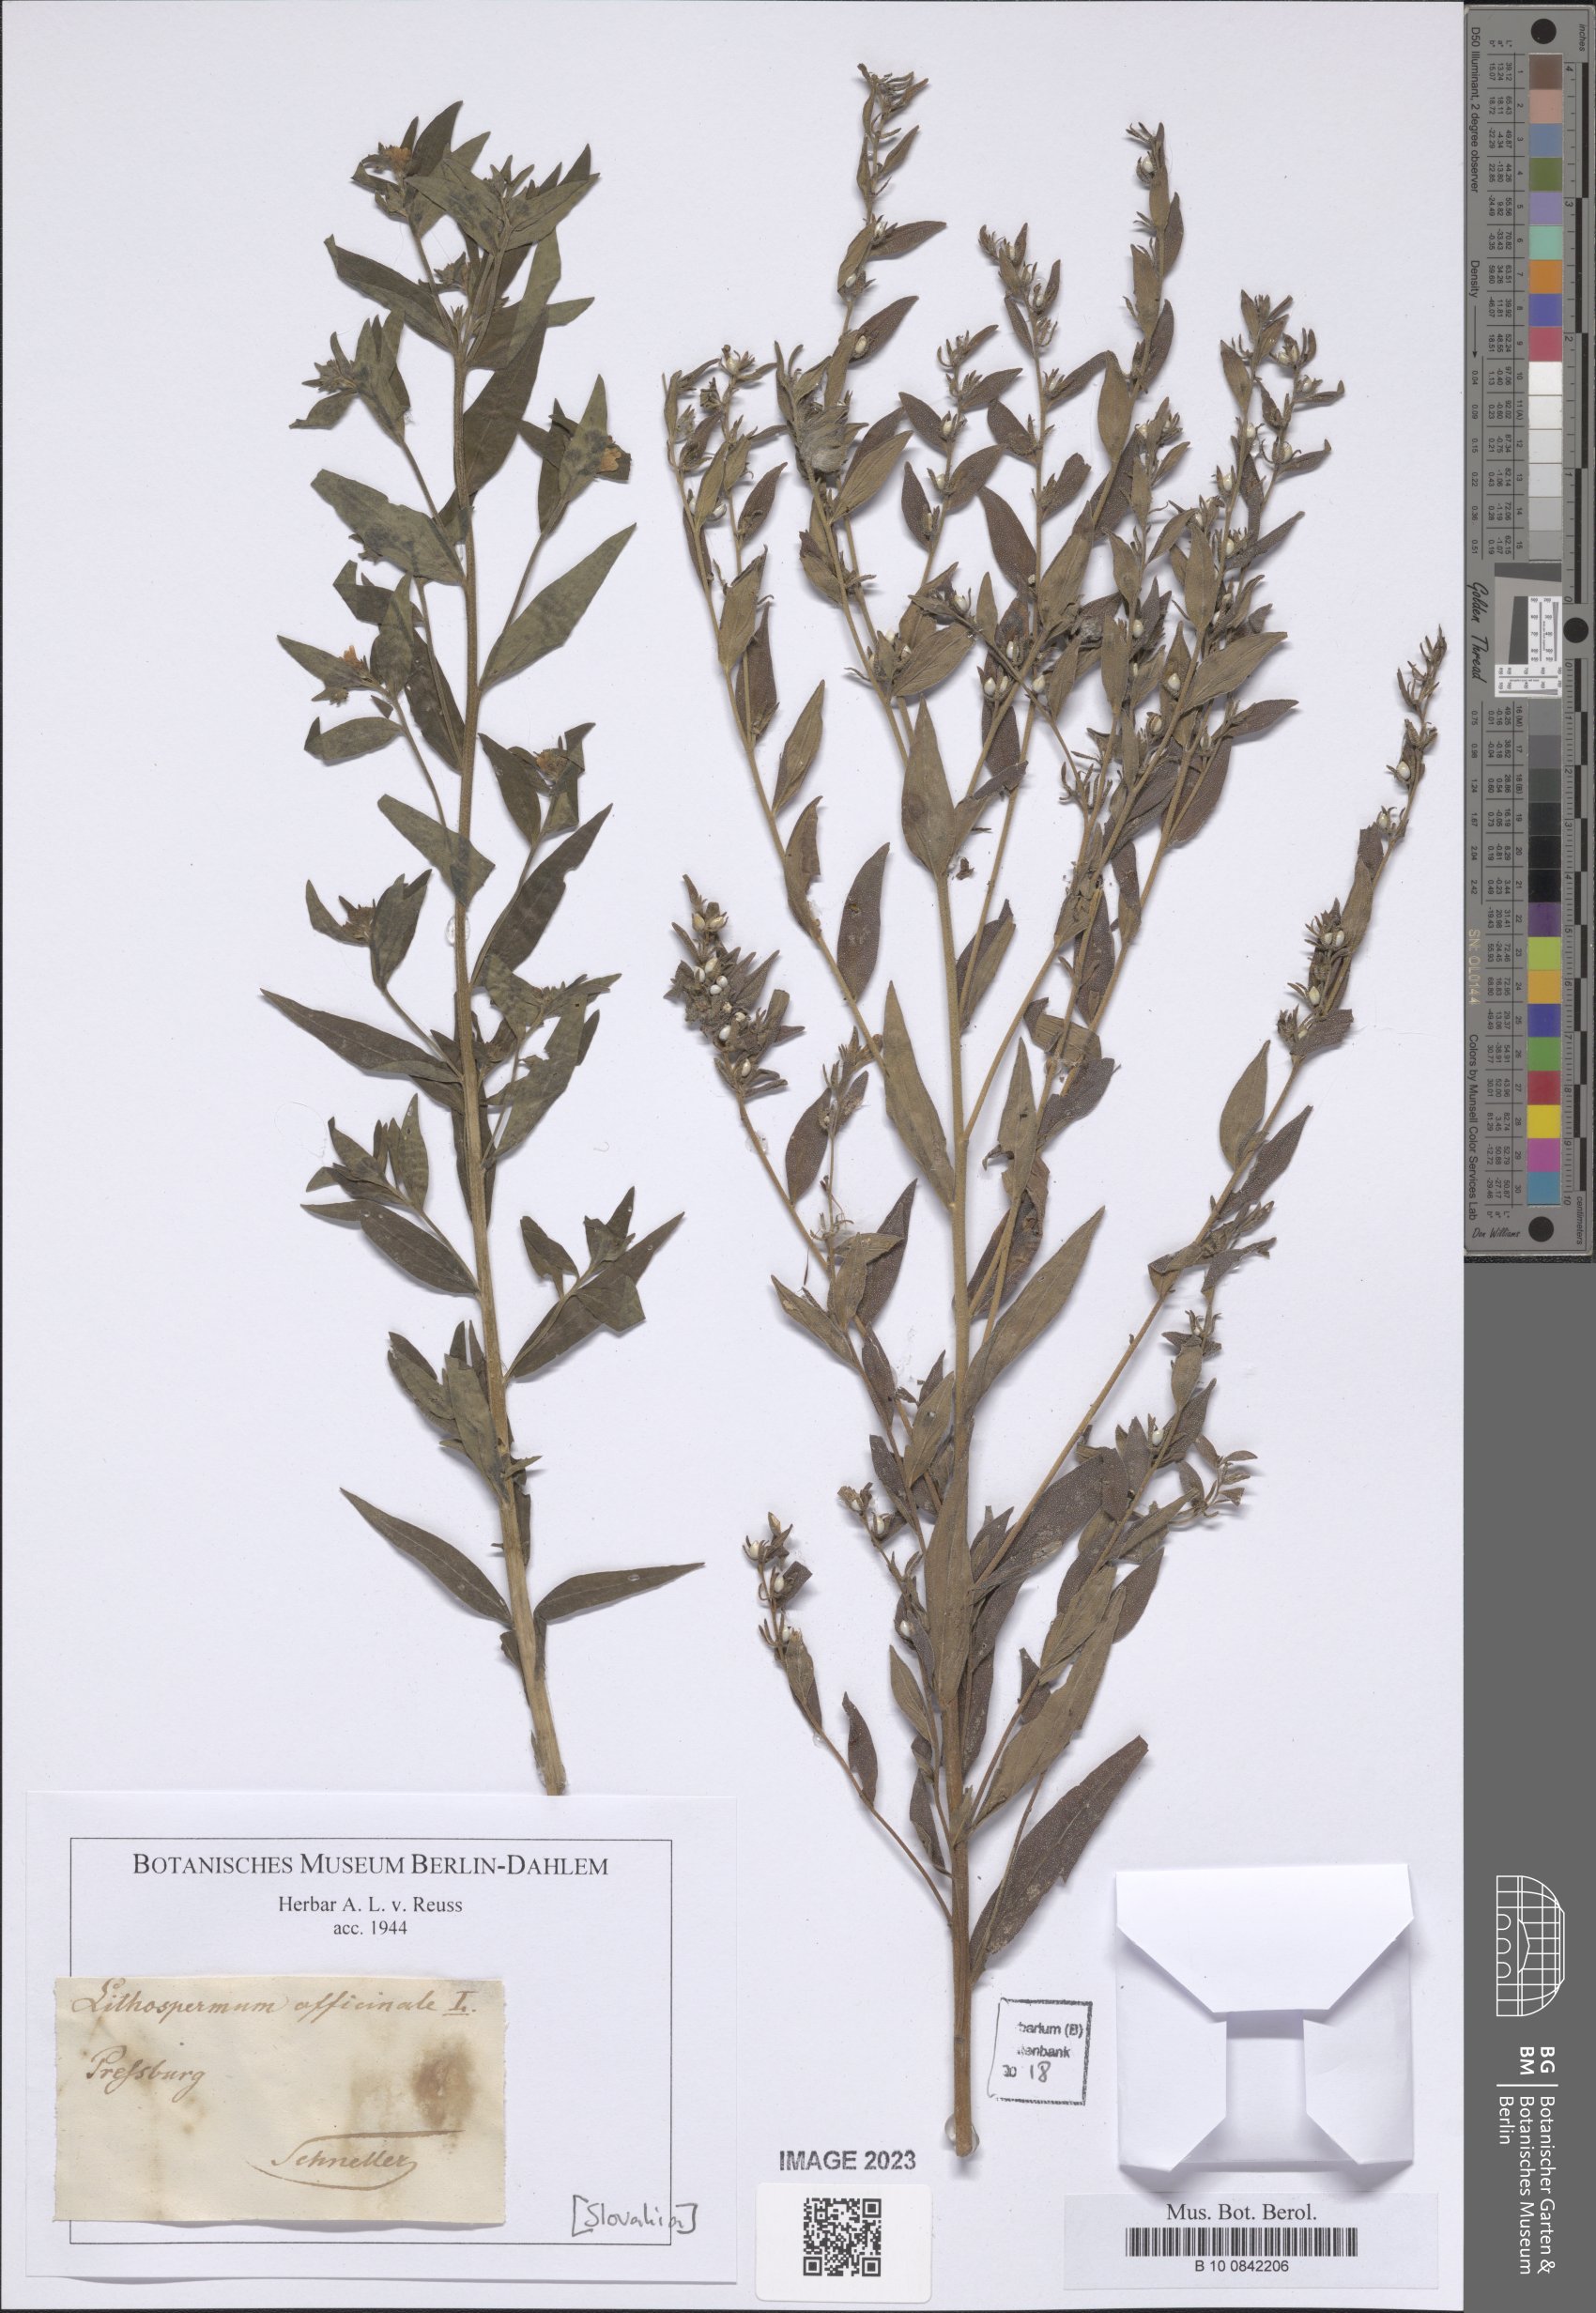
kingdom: Plantae
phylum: Tracheophyta
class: Magnoliopsida
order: Boraginales
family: Boraginaceae
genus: Lithospermum
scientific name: Lithospermum officinale
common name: Common gromwell
